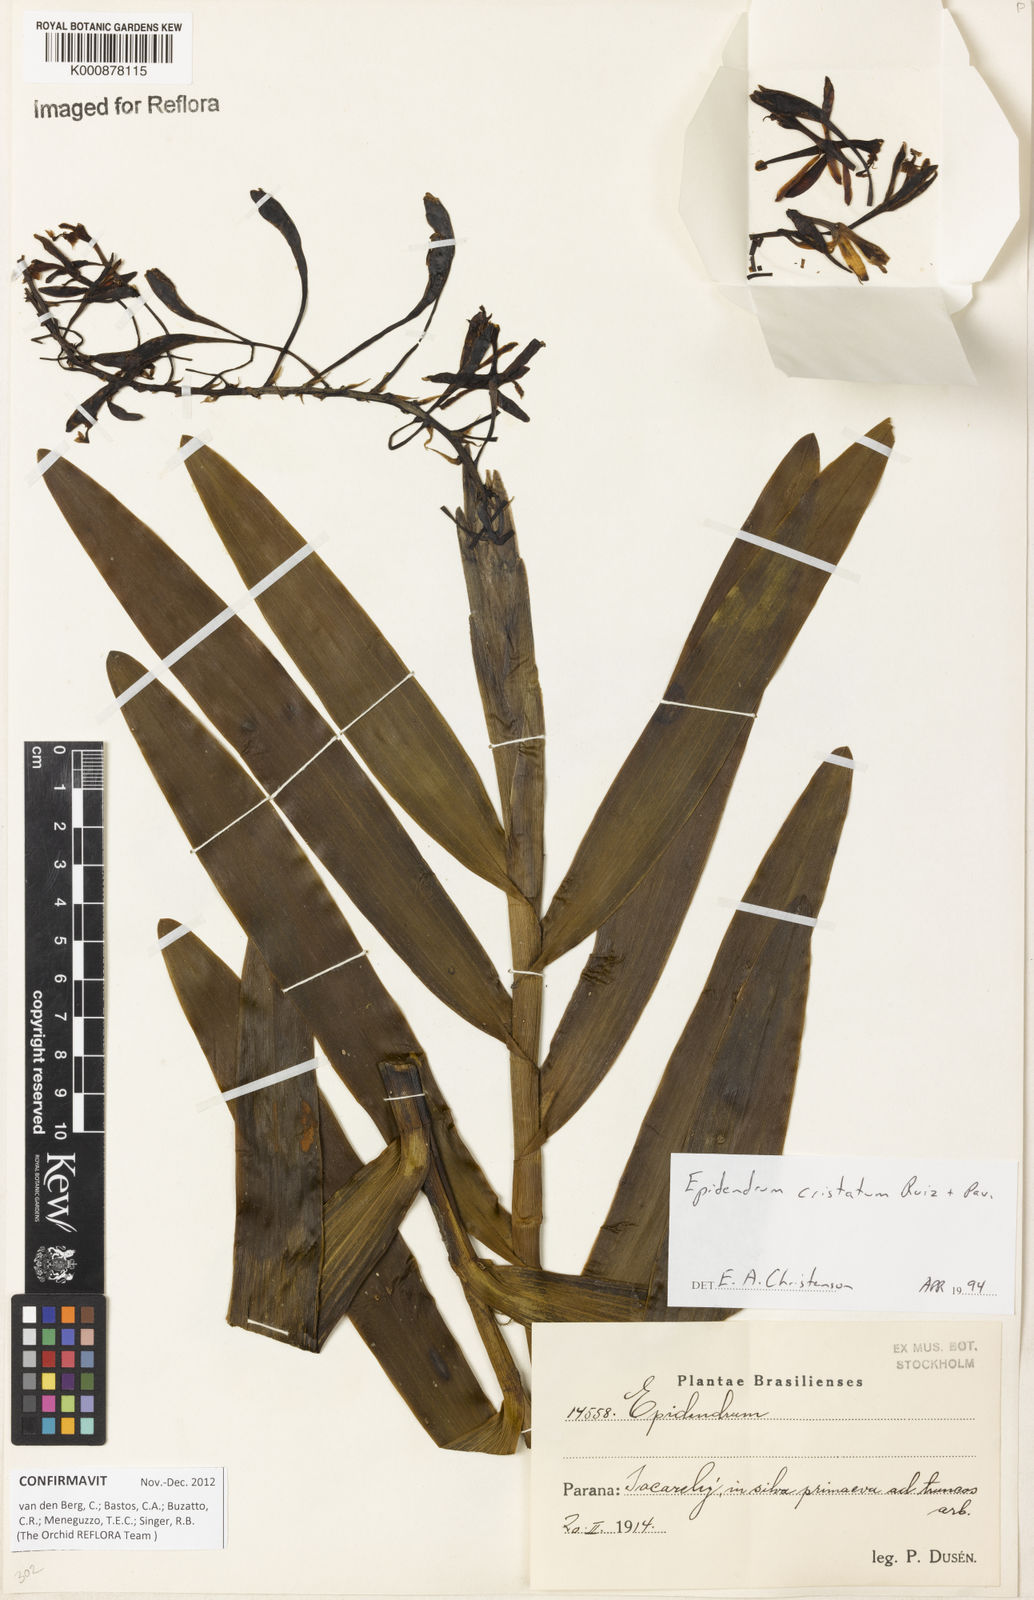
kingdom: Plantae
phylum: Tracheophyta
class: Liliopsida
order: Asparagales
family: Orchidaceae
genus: Epidendrum
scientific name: Epidendrum cristatum
